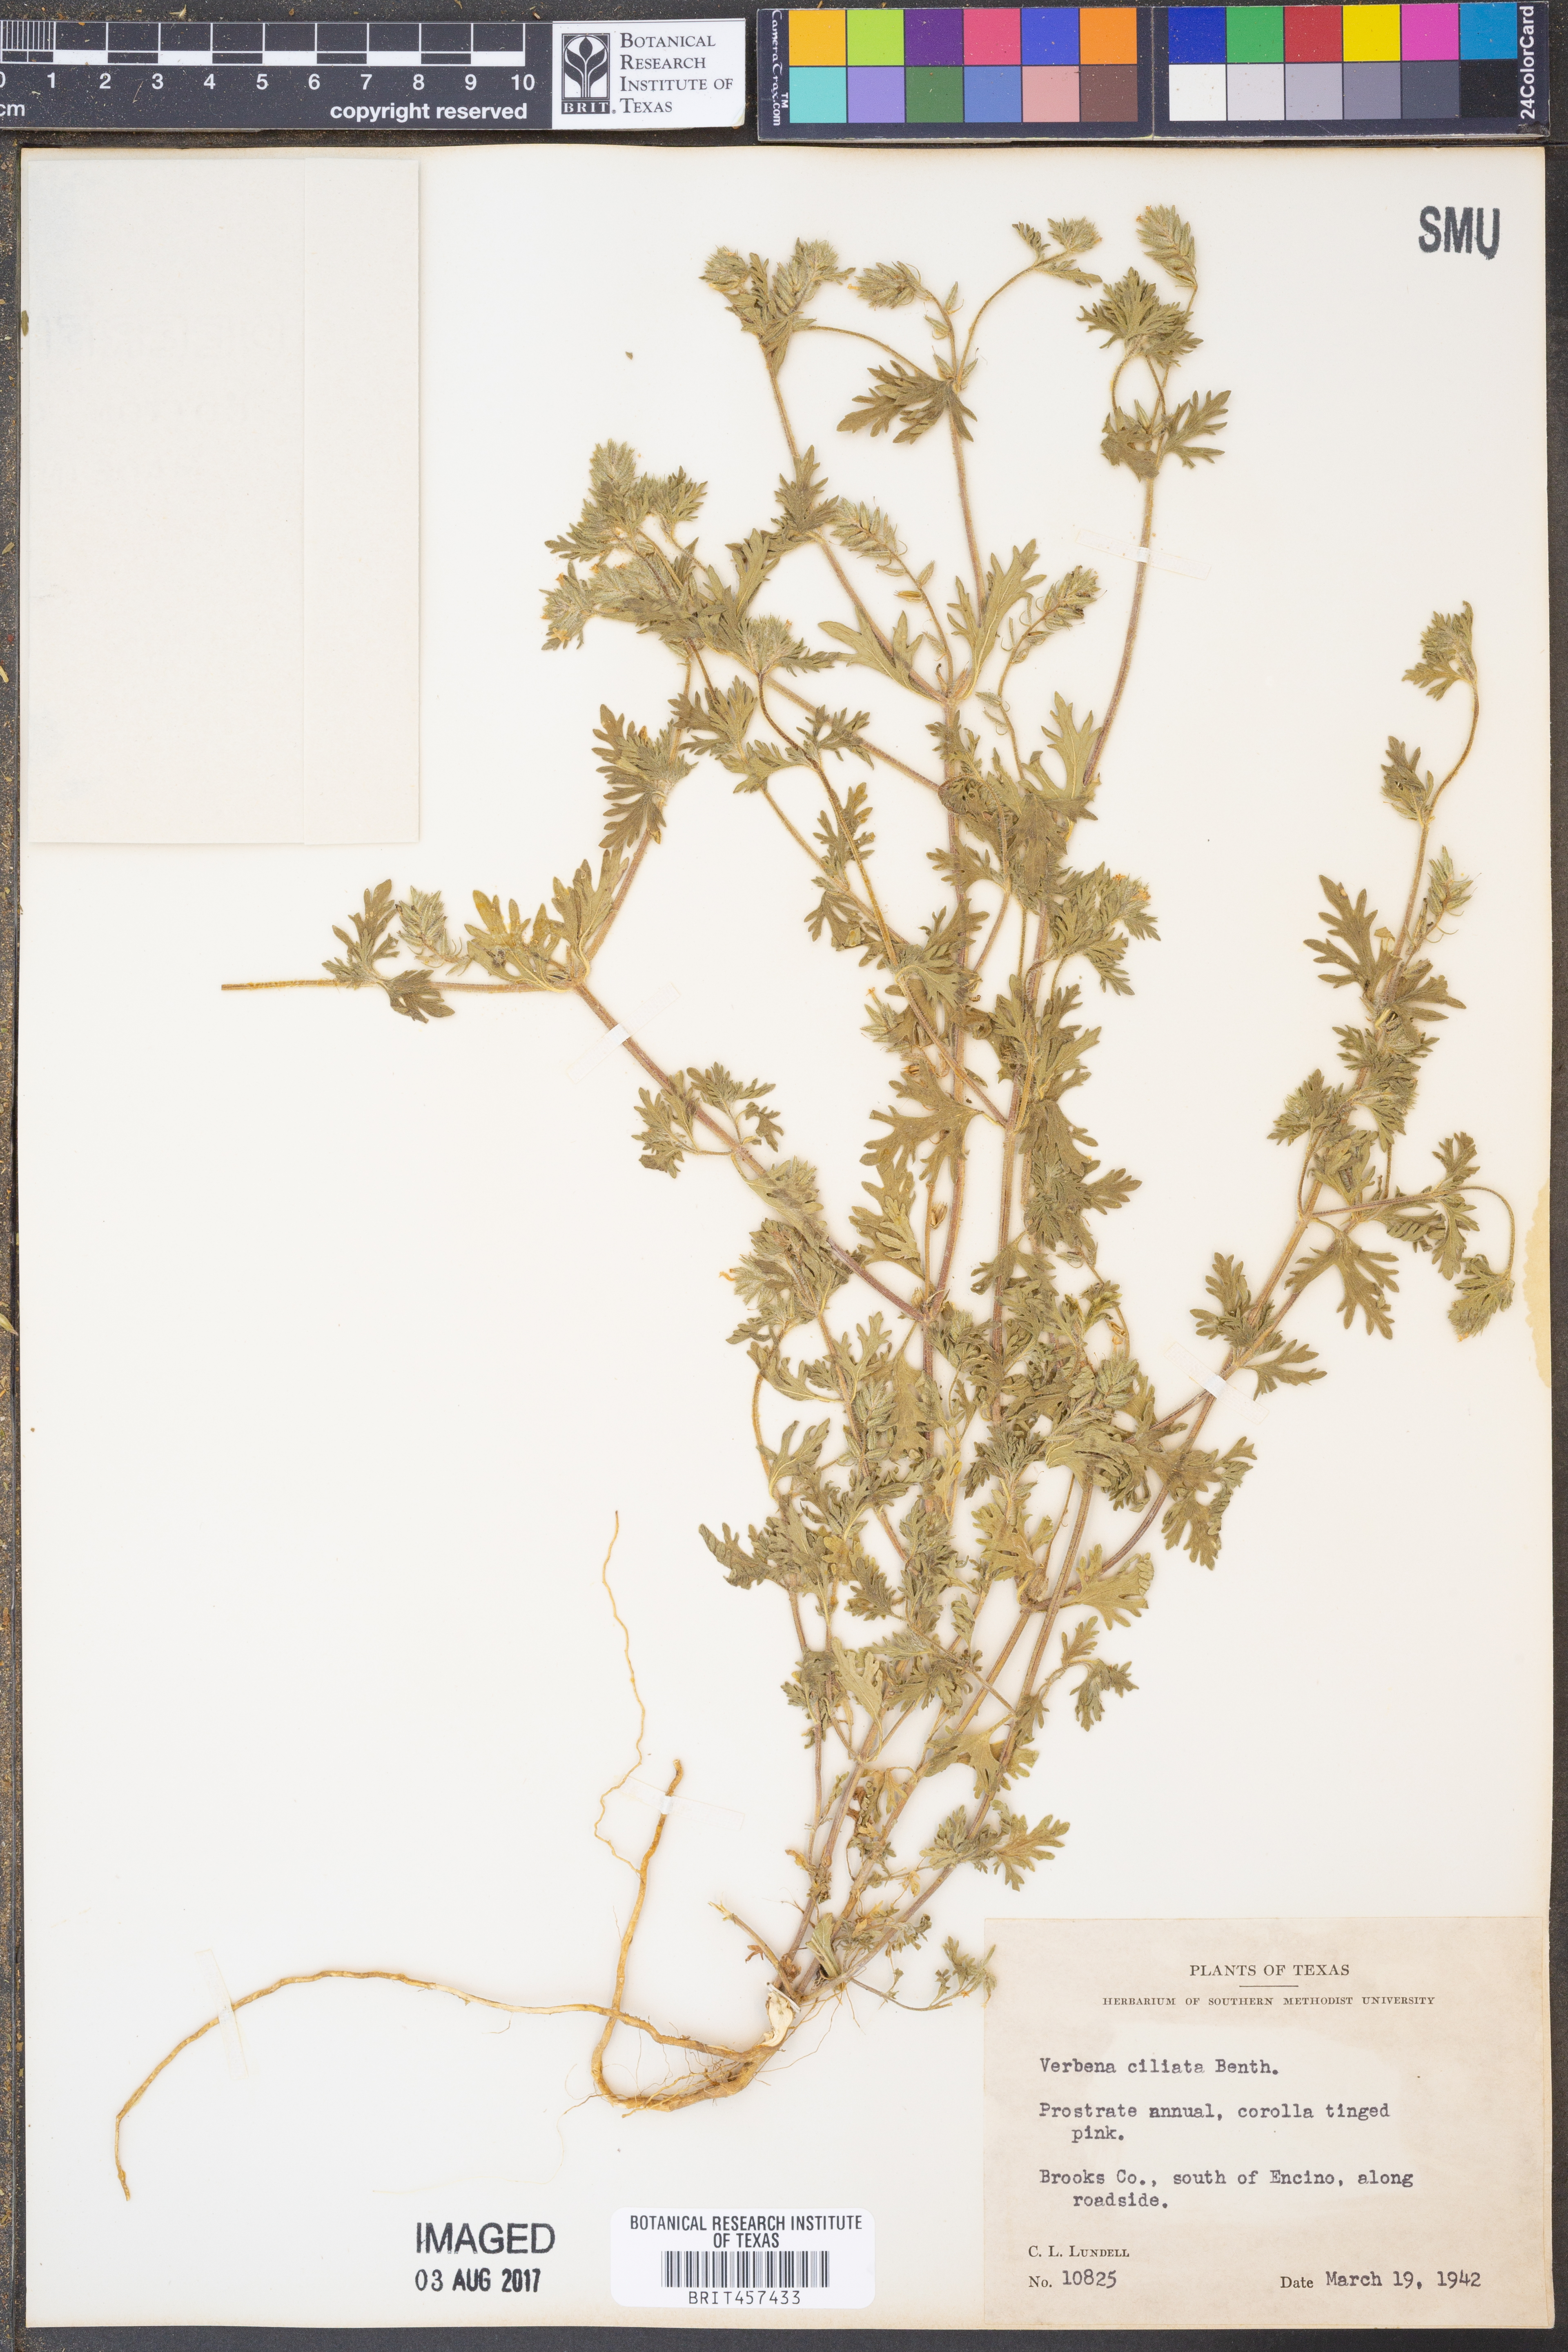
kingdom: Plantae
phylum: Tracheophyta
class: Magnoliopsida
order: Lamiales
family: Verbenaceae
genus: Verbena
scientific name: Verbena bipinnatifida
